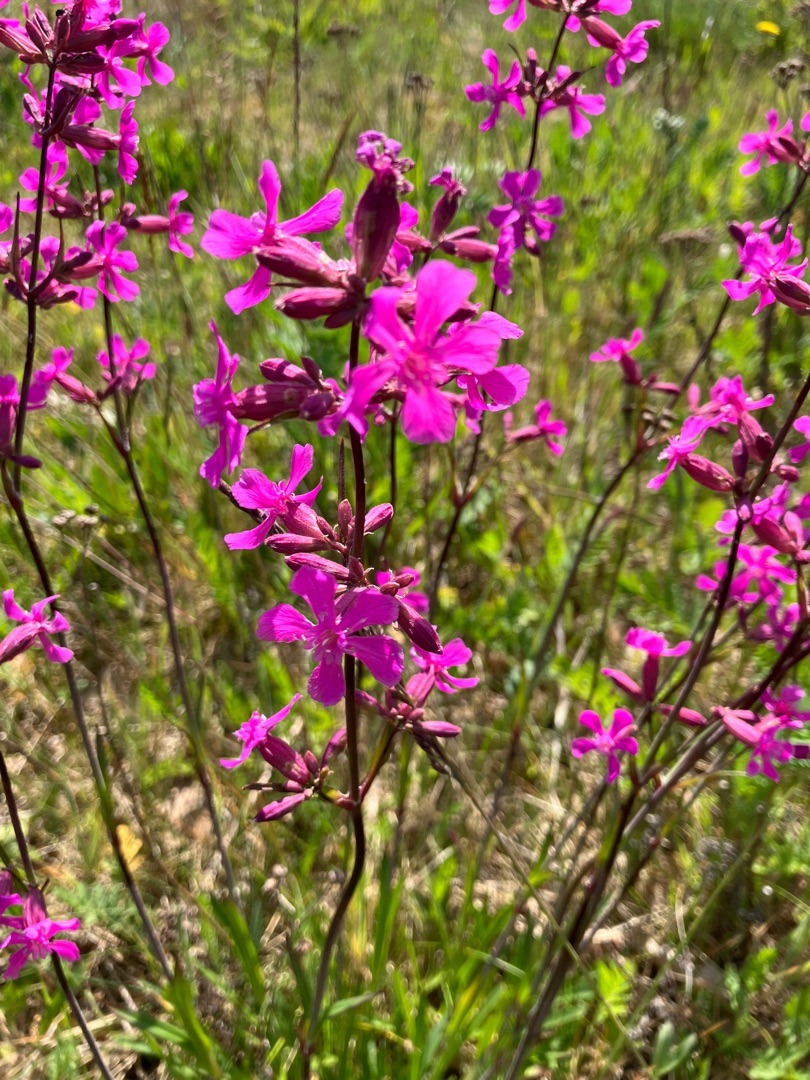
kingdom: Plantae
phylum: Tracheophyta
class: Magnoliopsida
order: Caryophyllales
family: Caryophyllaceae
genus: Viscaria
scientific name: Viscaria vulgaris
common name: Tjærenellike
